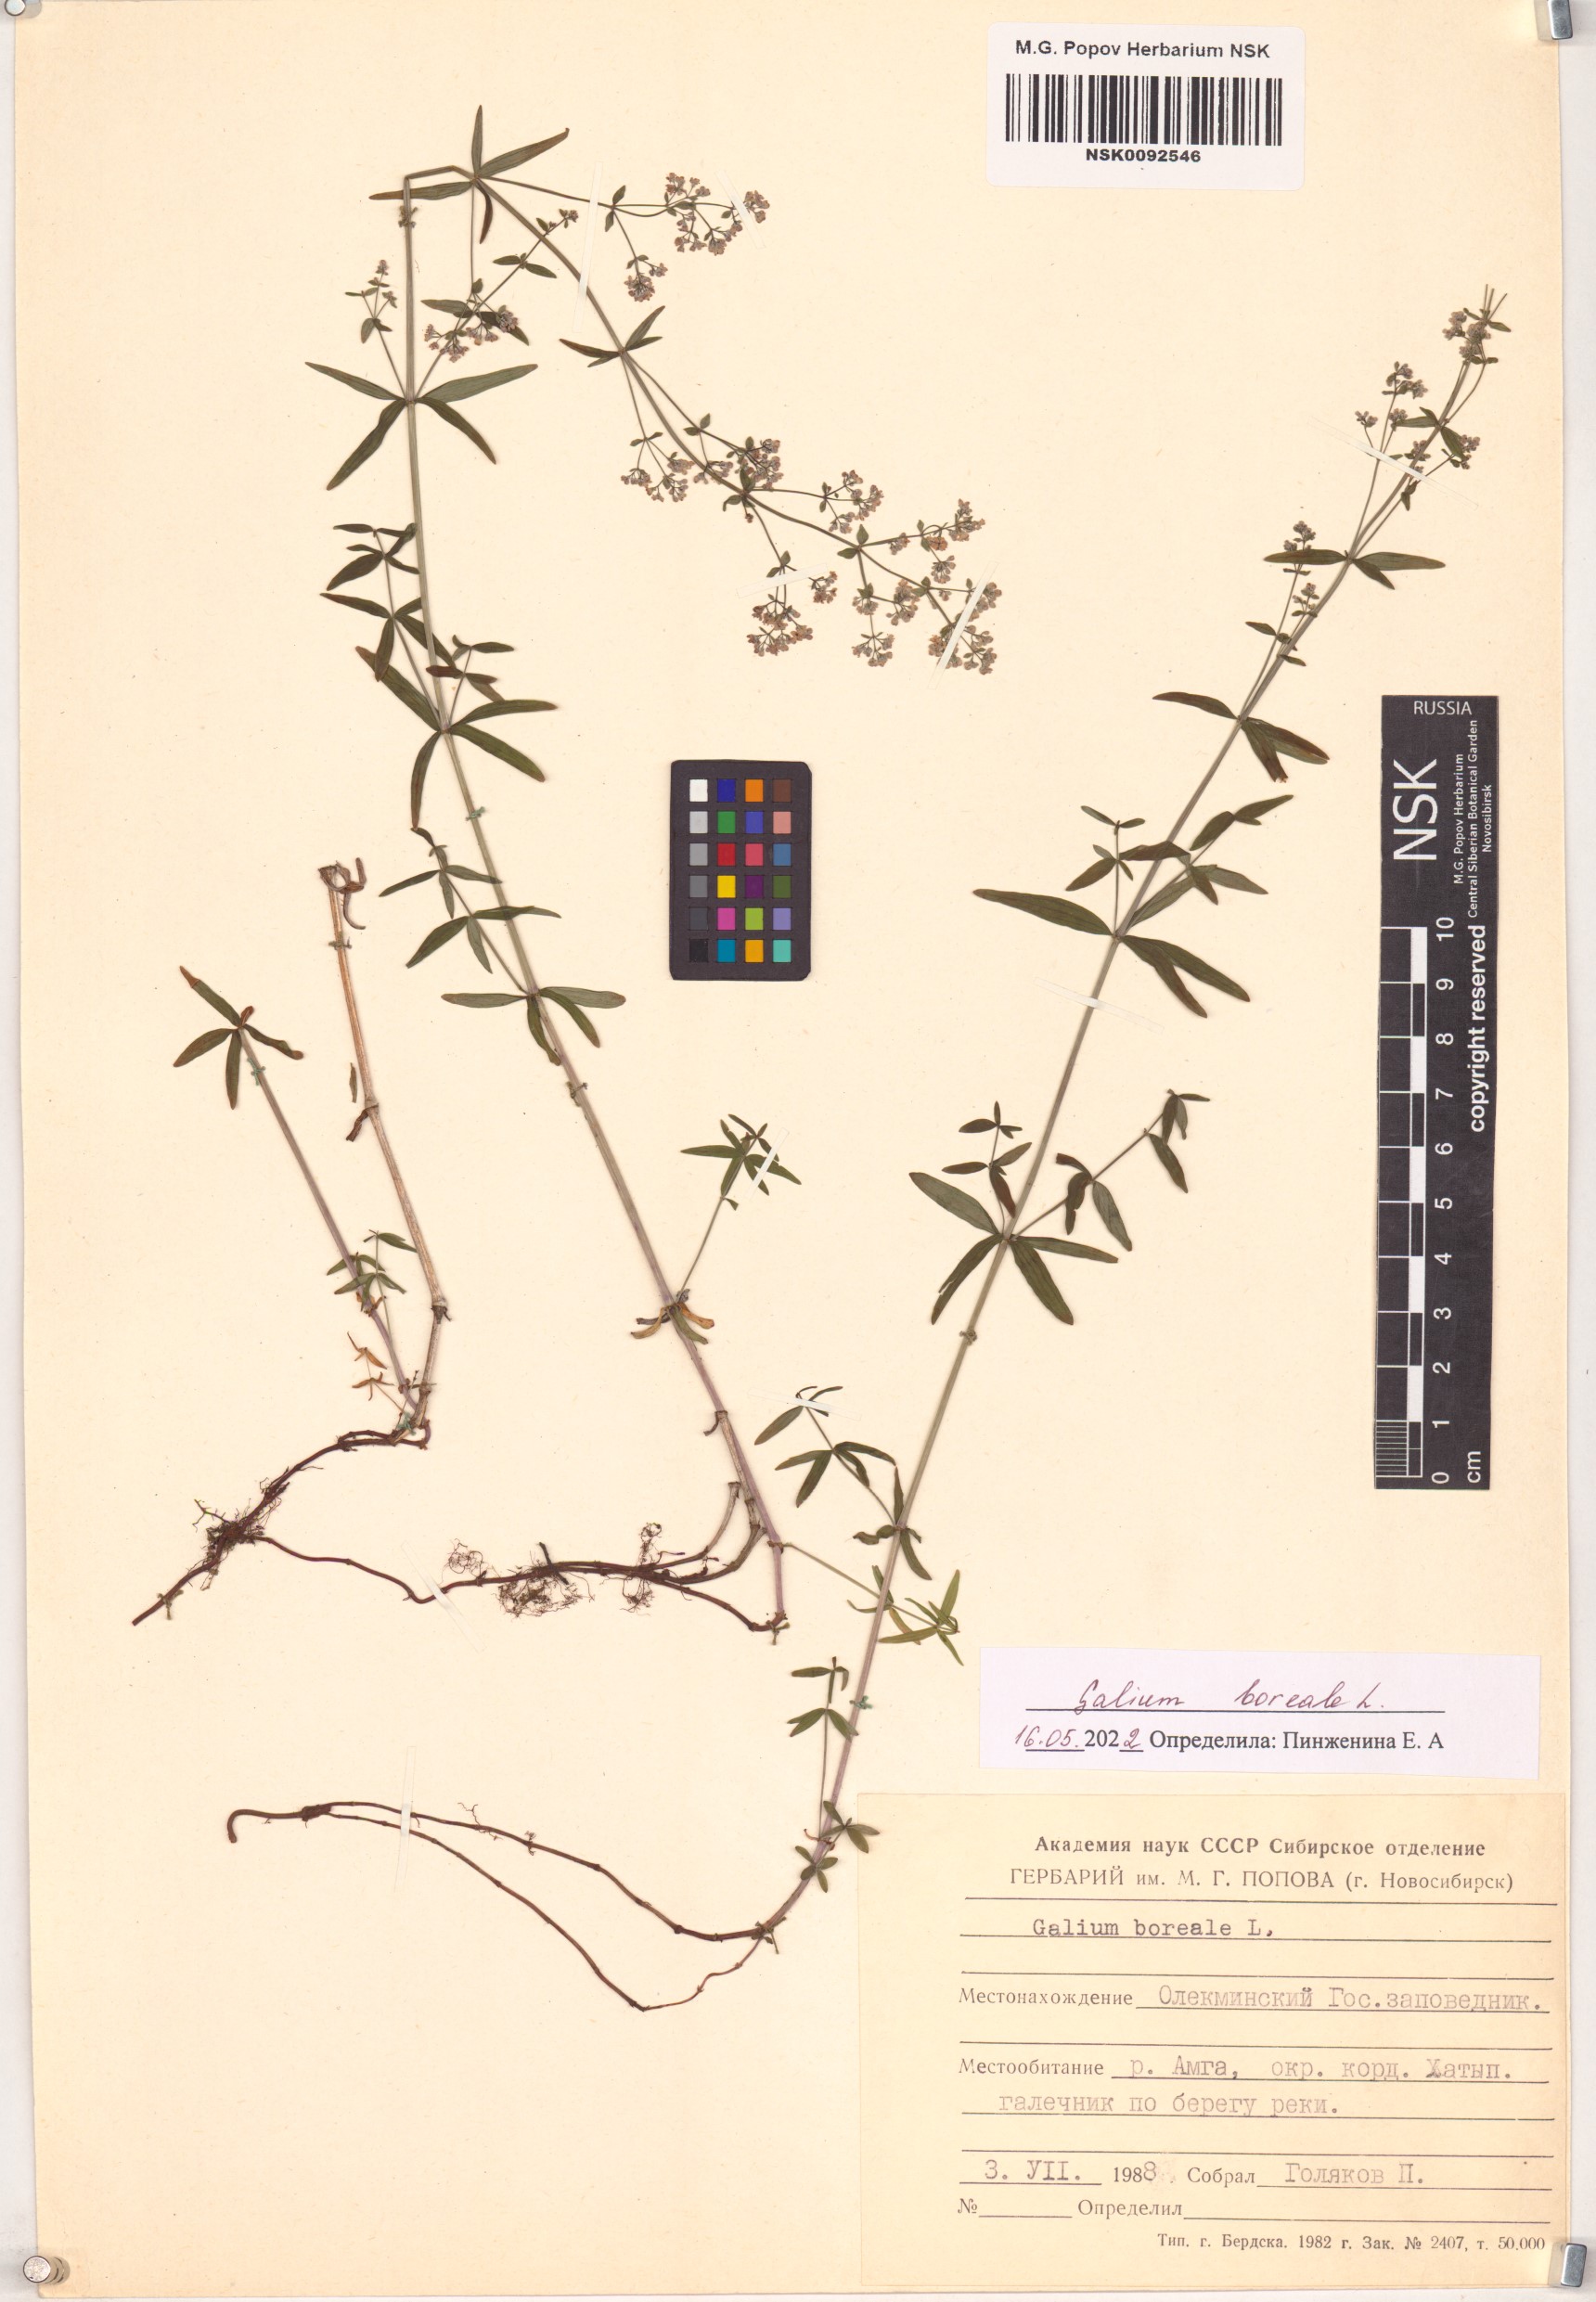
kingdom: Plantae
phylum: Tracheophyta
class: Magnoliopsida
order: Gentianales
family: Rubiaceae
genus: Galium
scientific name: Galium boreale
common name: Northern bedstraw
